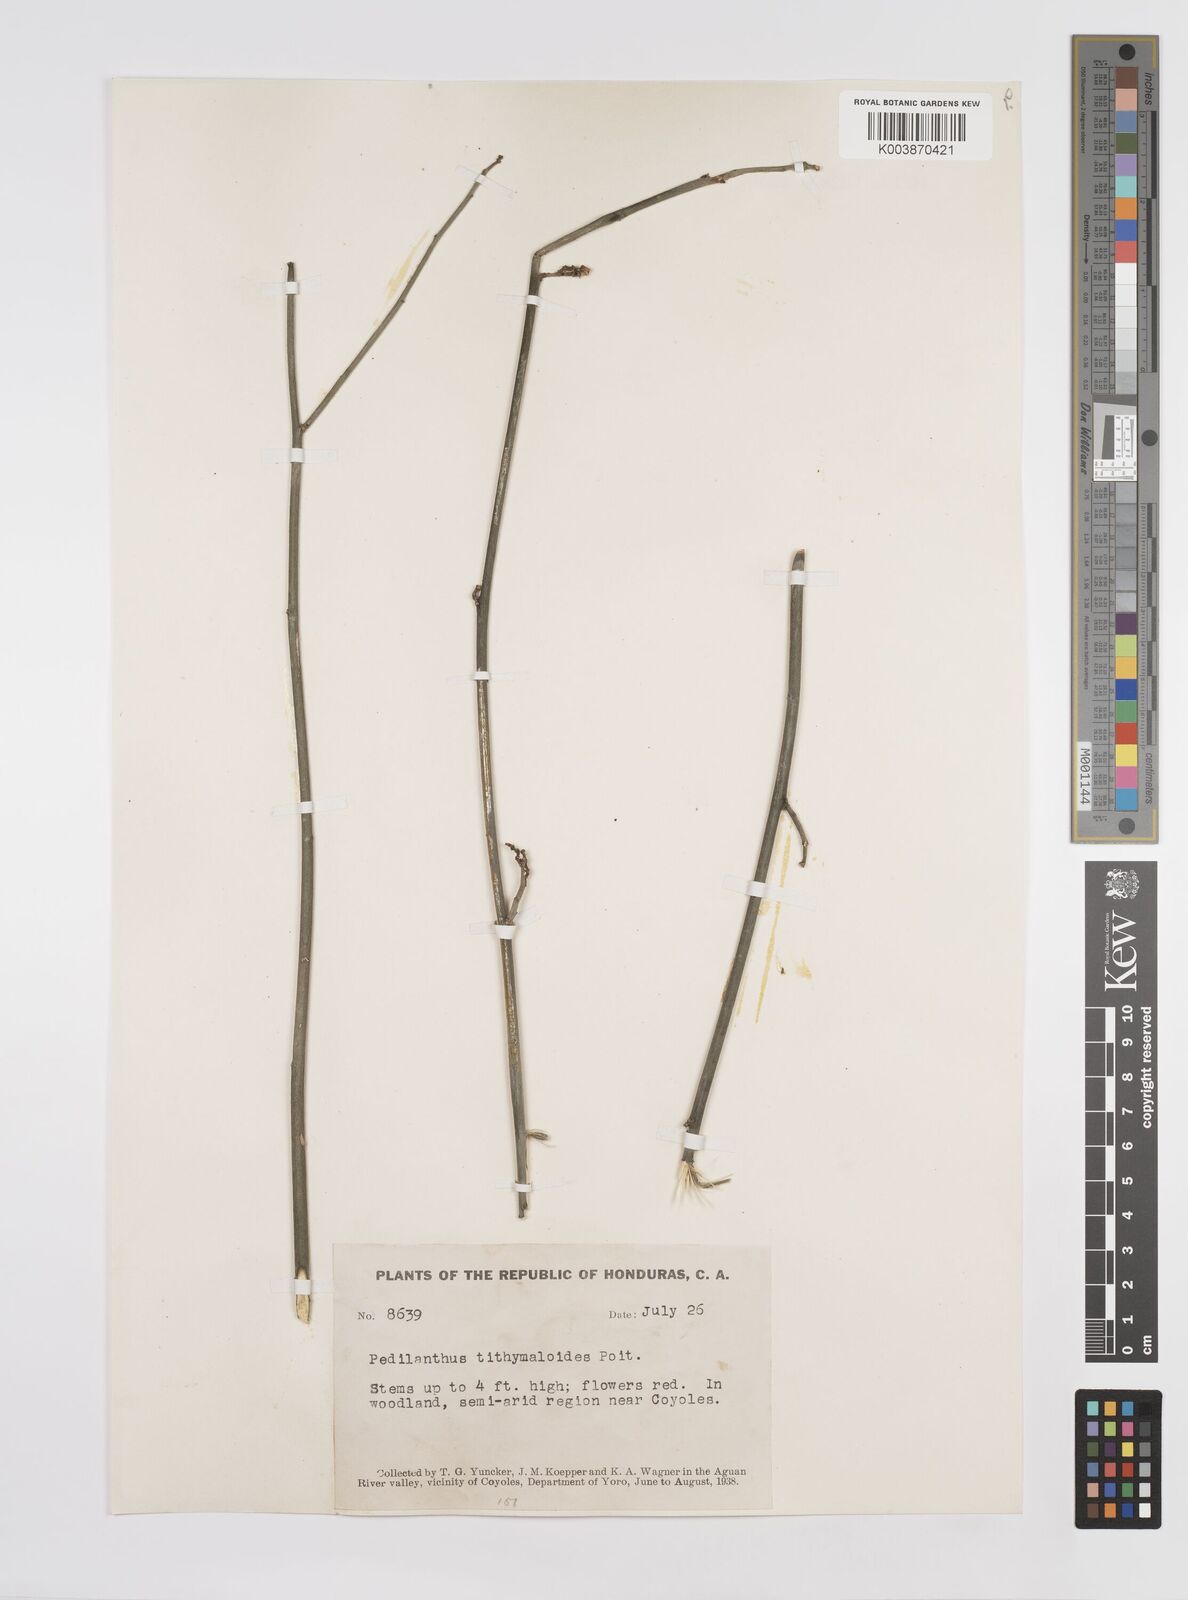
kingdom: Plantae
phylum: Tracheophyta
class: Magnoliopsida
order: Malpighiales
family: Euphorbiaceae
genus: Euphorbia
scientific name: Euphorbia tithymaloides
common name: Slipperplant
